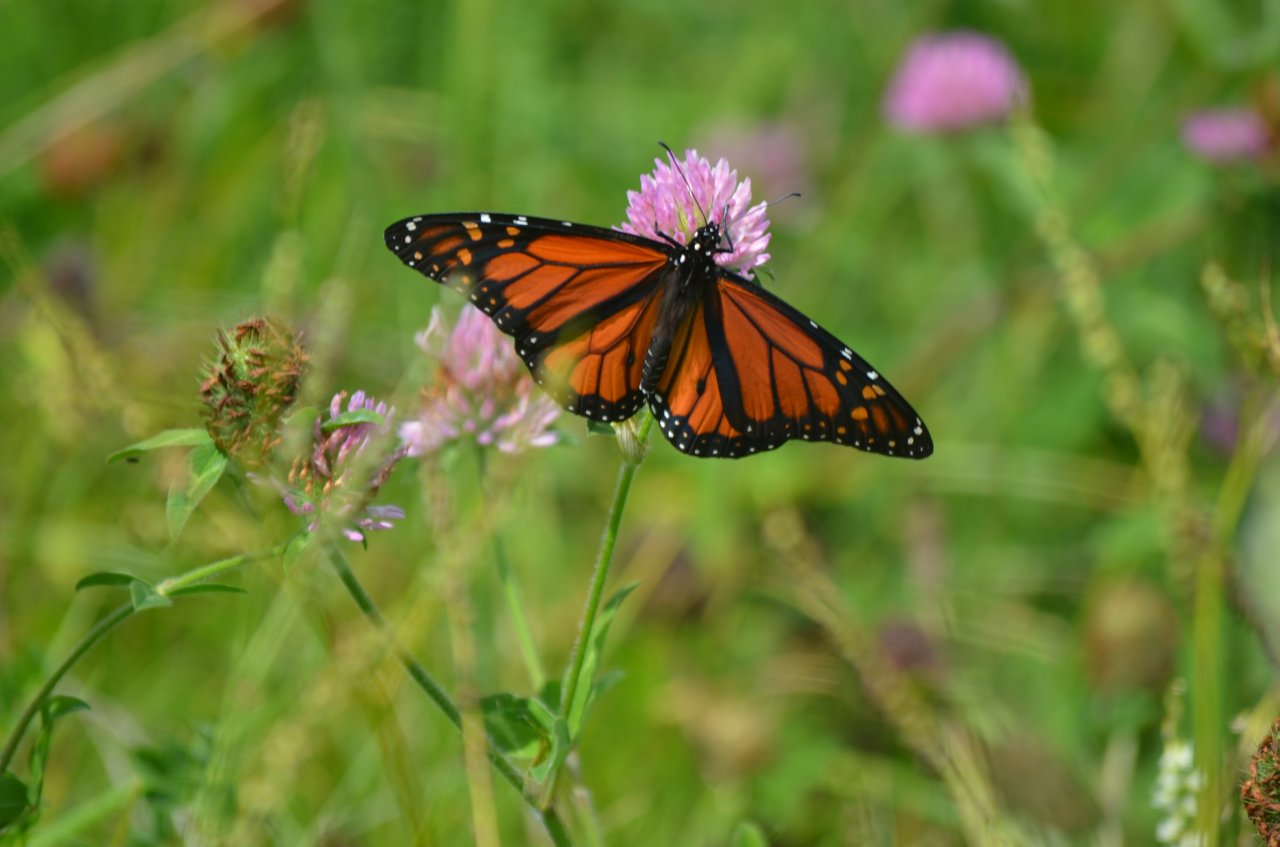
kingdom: Animalia
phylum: Arthropoda
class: Insecta
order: Lepidoptera
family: Nymphalidae
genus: Danaus
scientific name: Danaus plexippus
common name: Monarch
